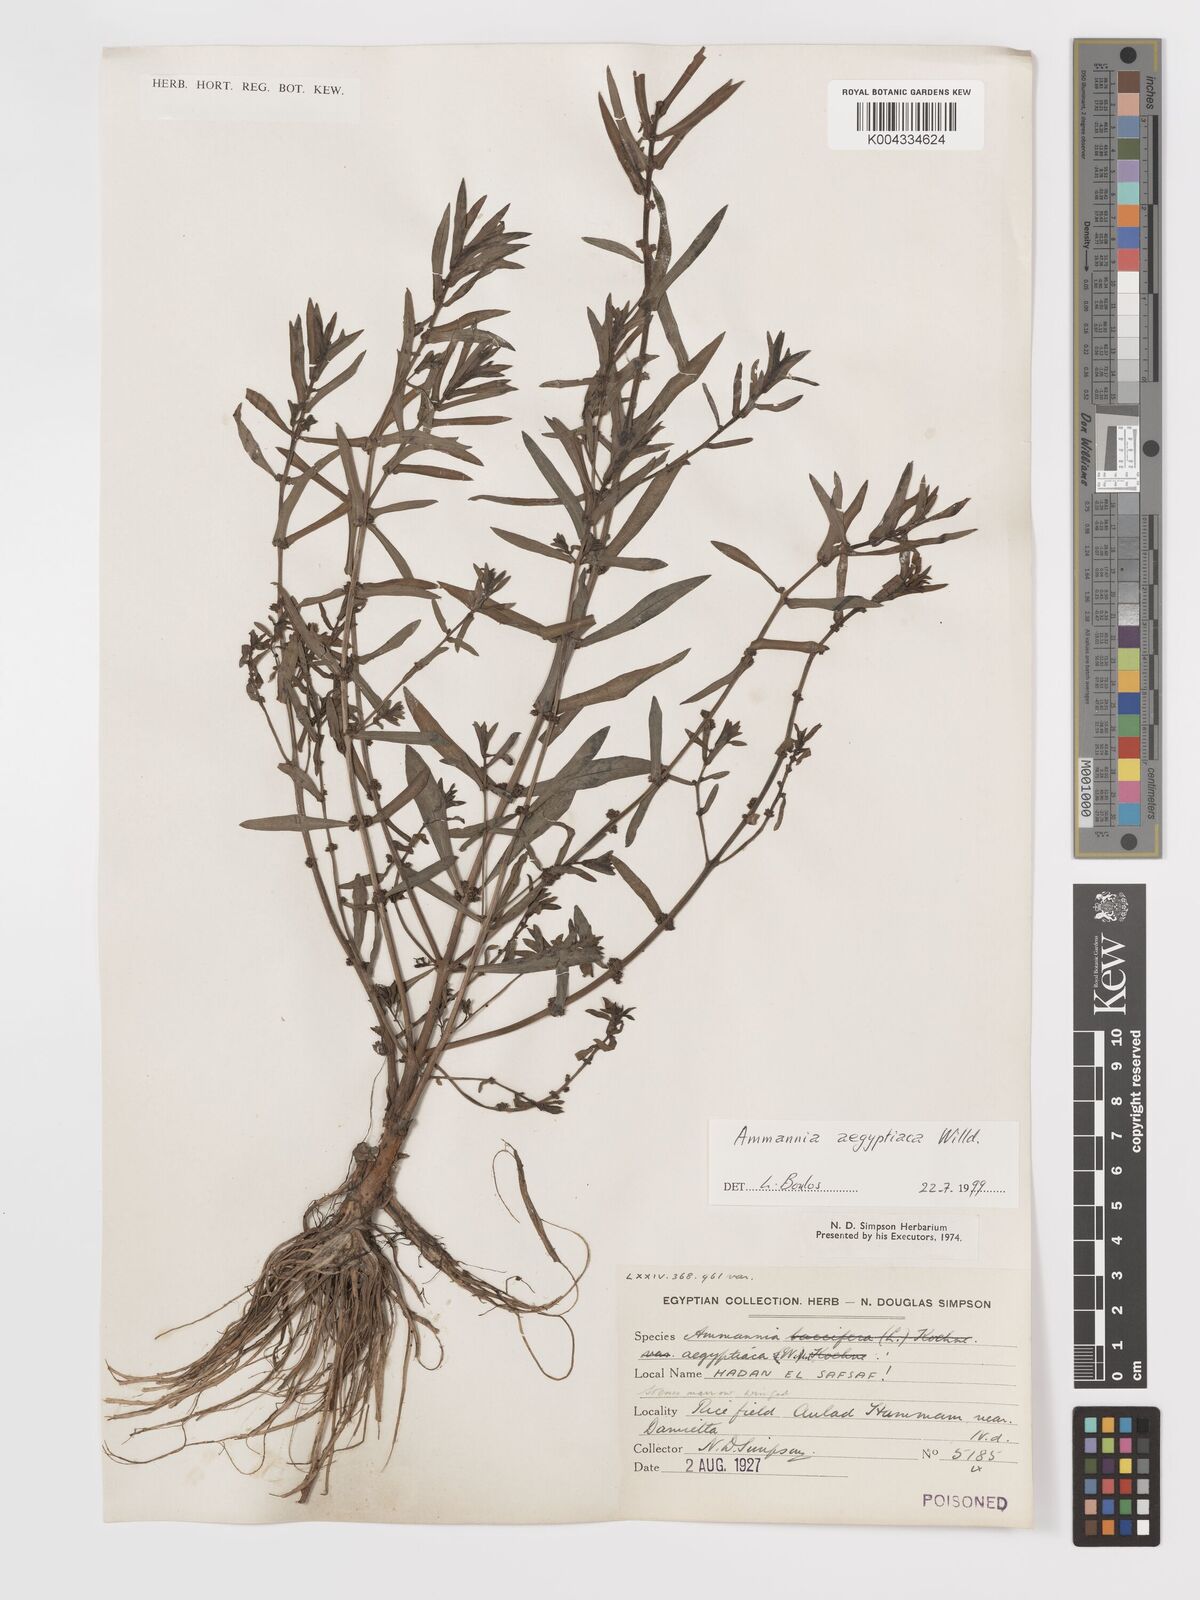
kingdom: Plantae
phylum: Tracheophyta
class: Magnoliopsida
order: Myrtales
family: Lythraceae
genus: Ammannia
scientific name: Ammannia
